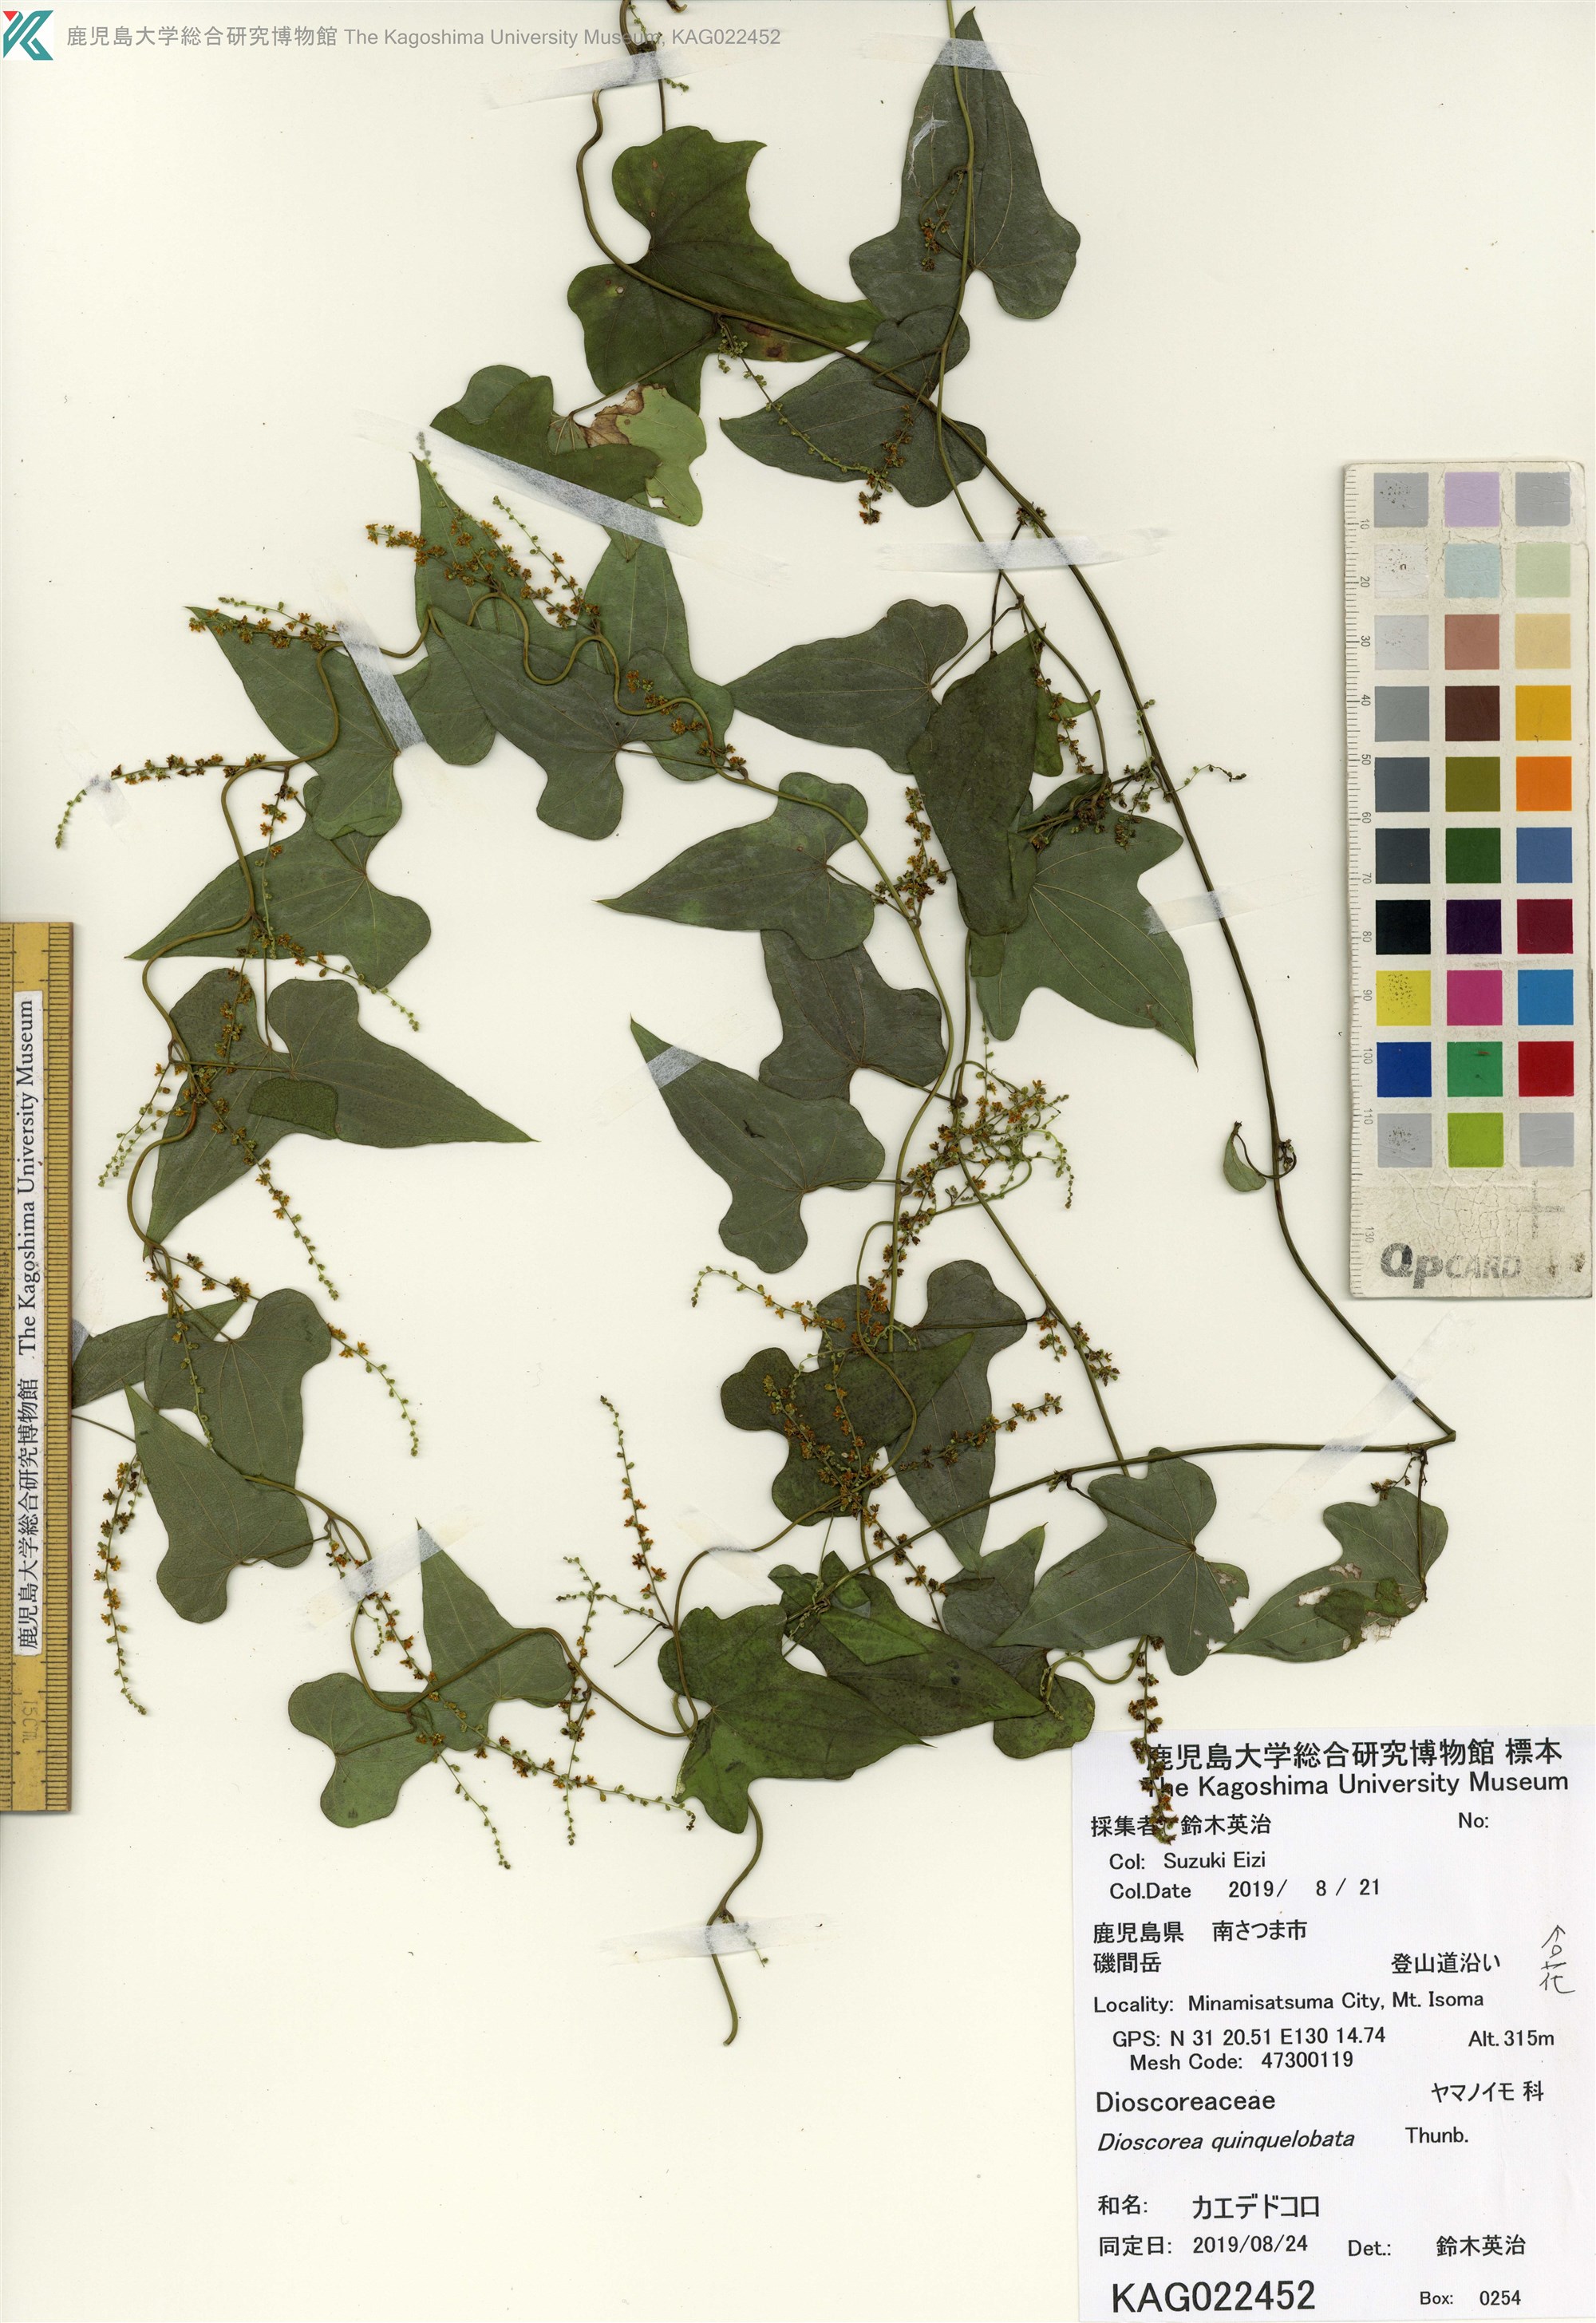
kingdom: Plantae
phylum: Tracheophyta
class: Liliopsida
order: Dioscoreales
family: Dioscoreaceae
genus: Dioscorea
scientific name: Dioscorea quinquelobata
